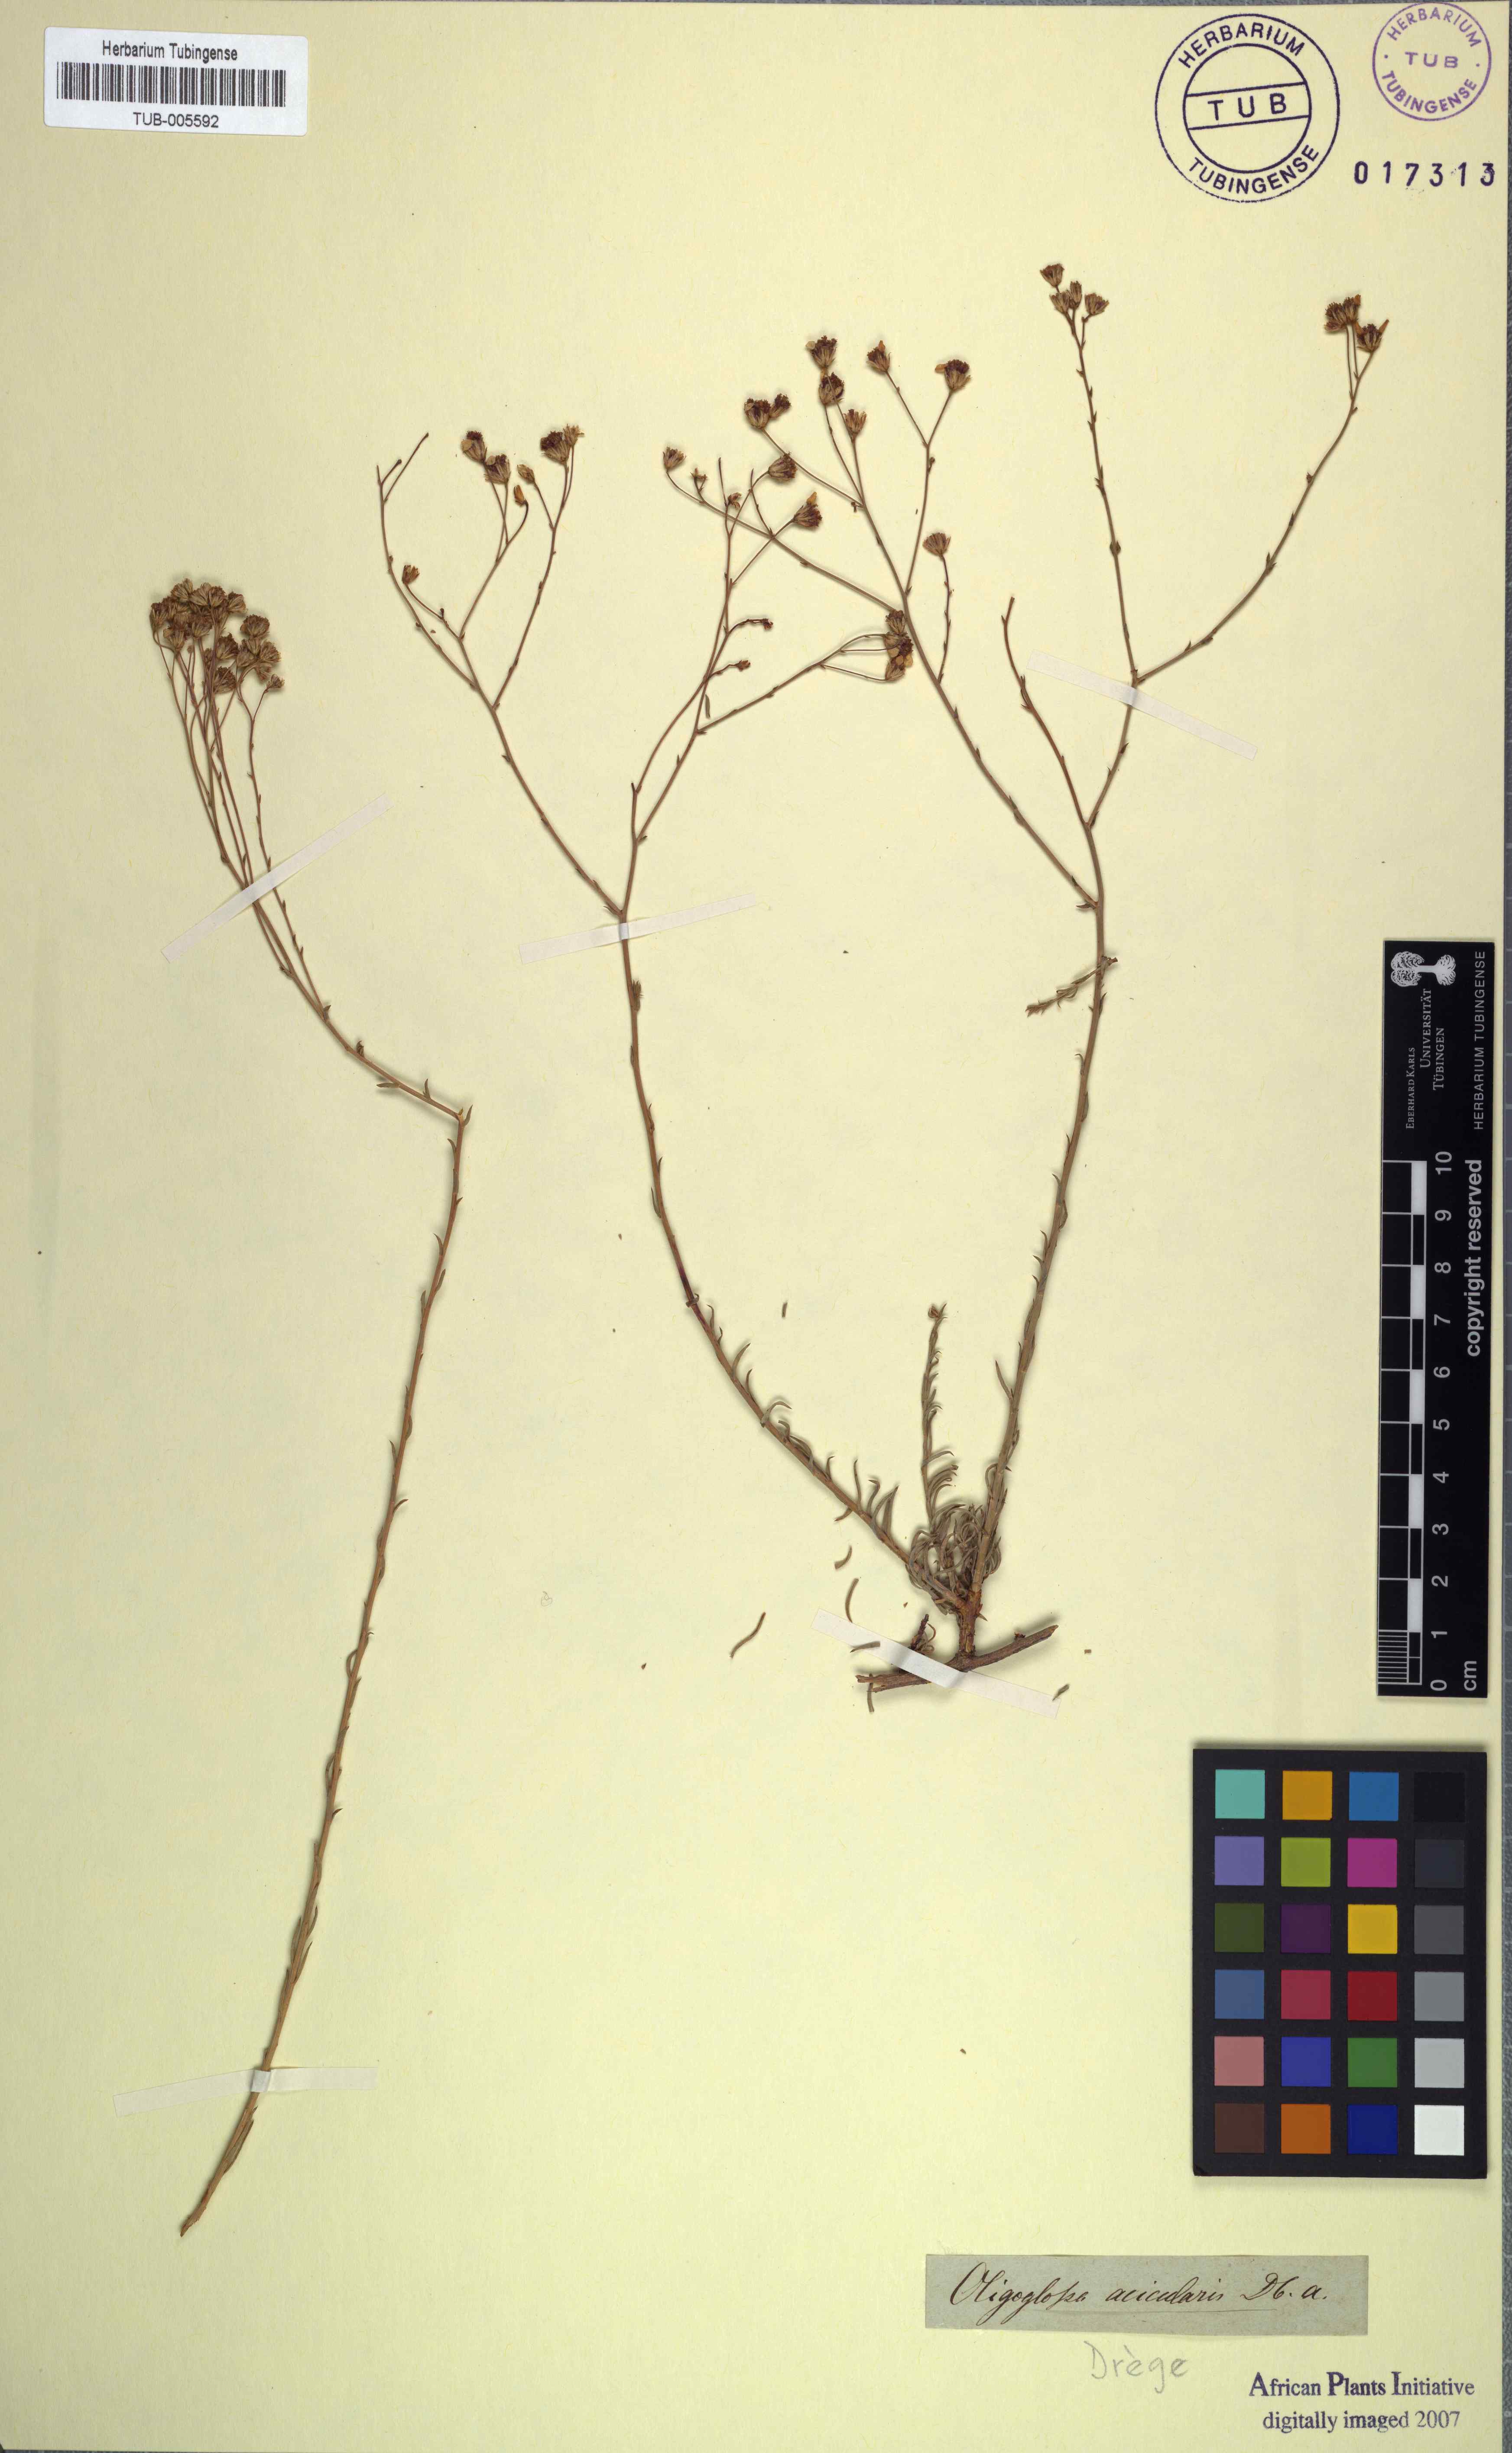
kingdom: Plantae
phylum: Tracheophyta
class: Magnoliopsida
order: Asterales
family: Asteraceae
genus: Phymaspermum
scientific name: Phymaspermum aciculare
